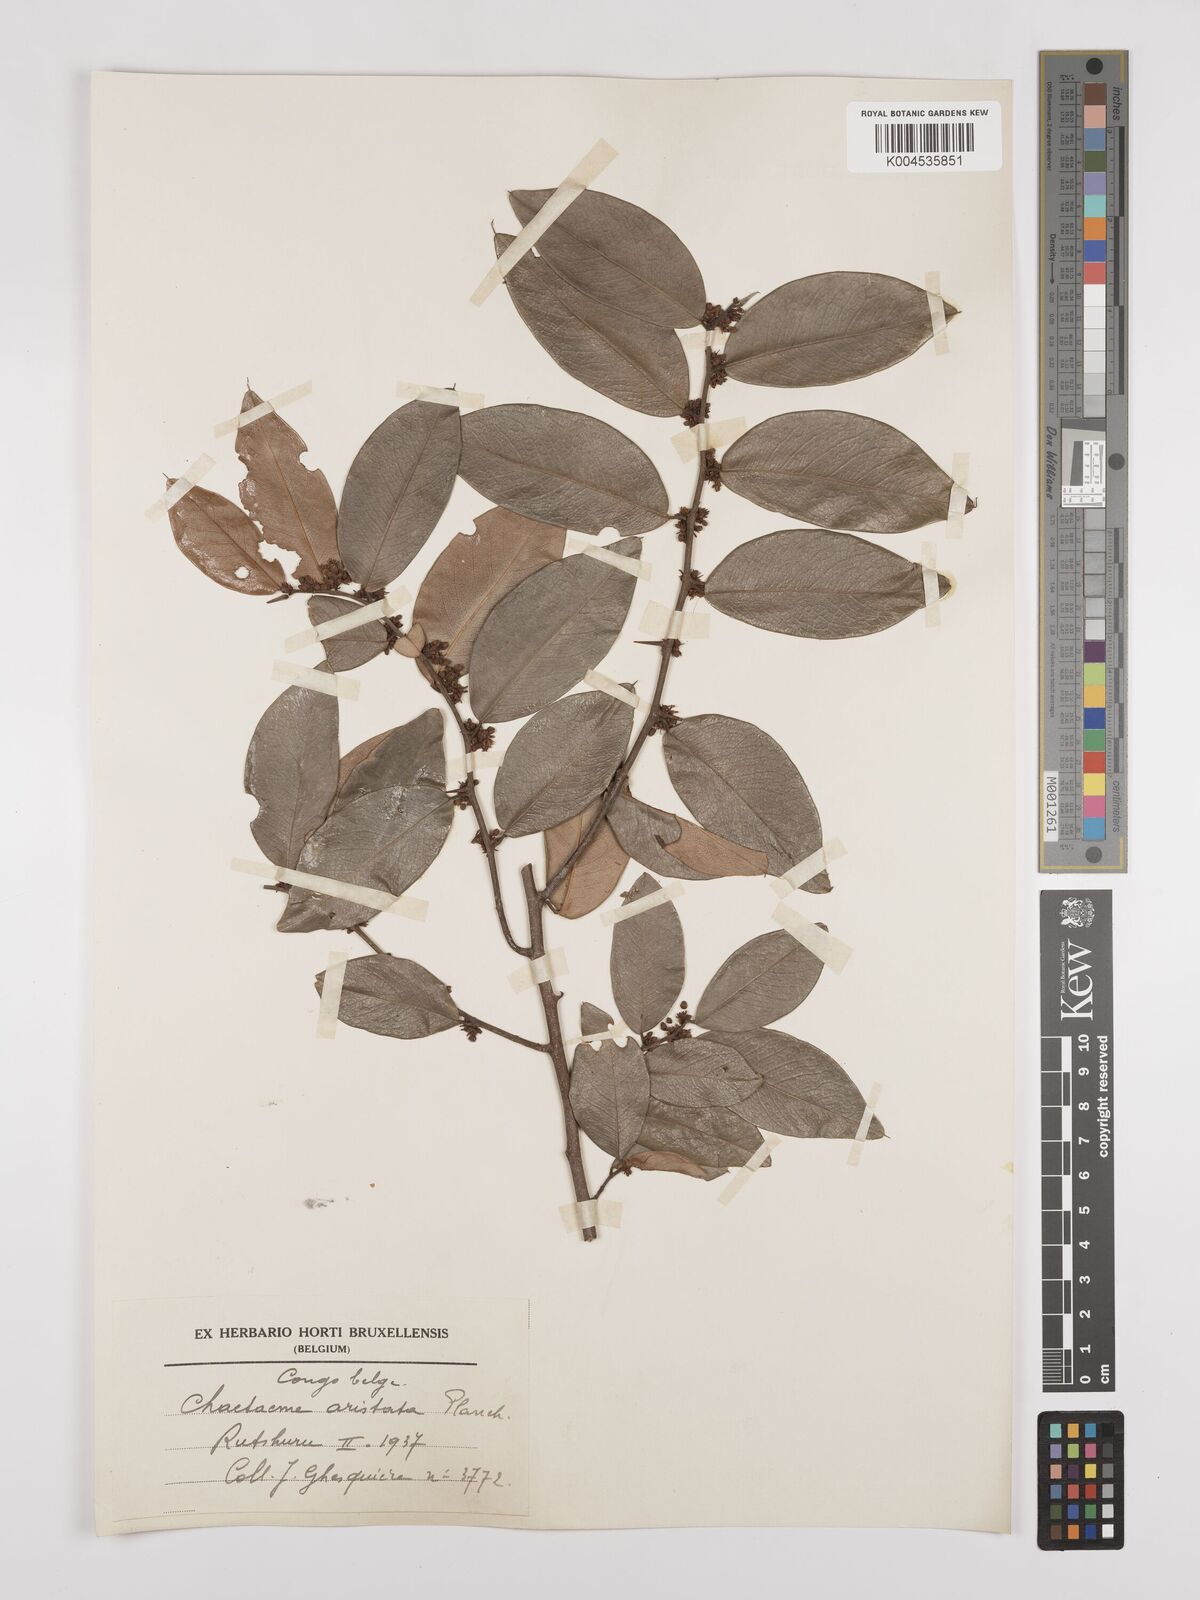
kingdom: Plantae
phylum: Tracheophyta
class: Magnoliopsida
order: Rosales
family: Cannabaceae
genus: Chaetachme
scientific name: Chaetachme aristata
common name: Thorny elm
